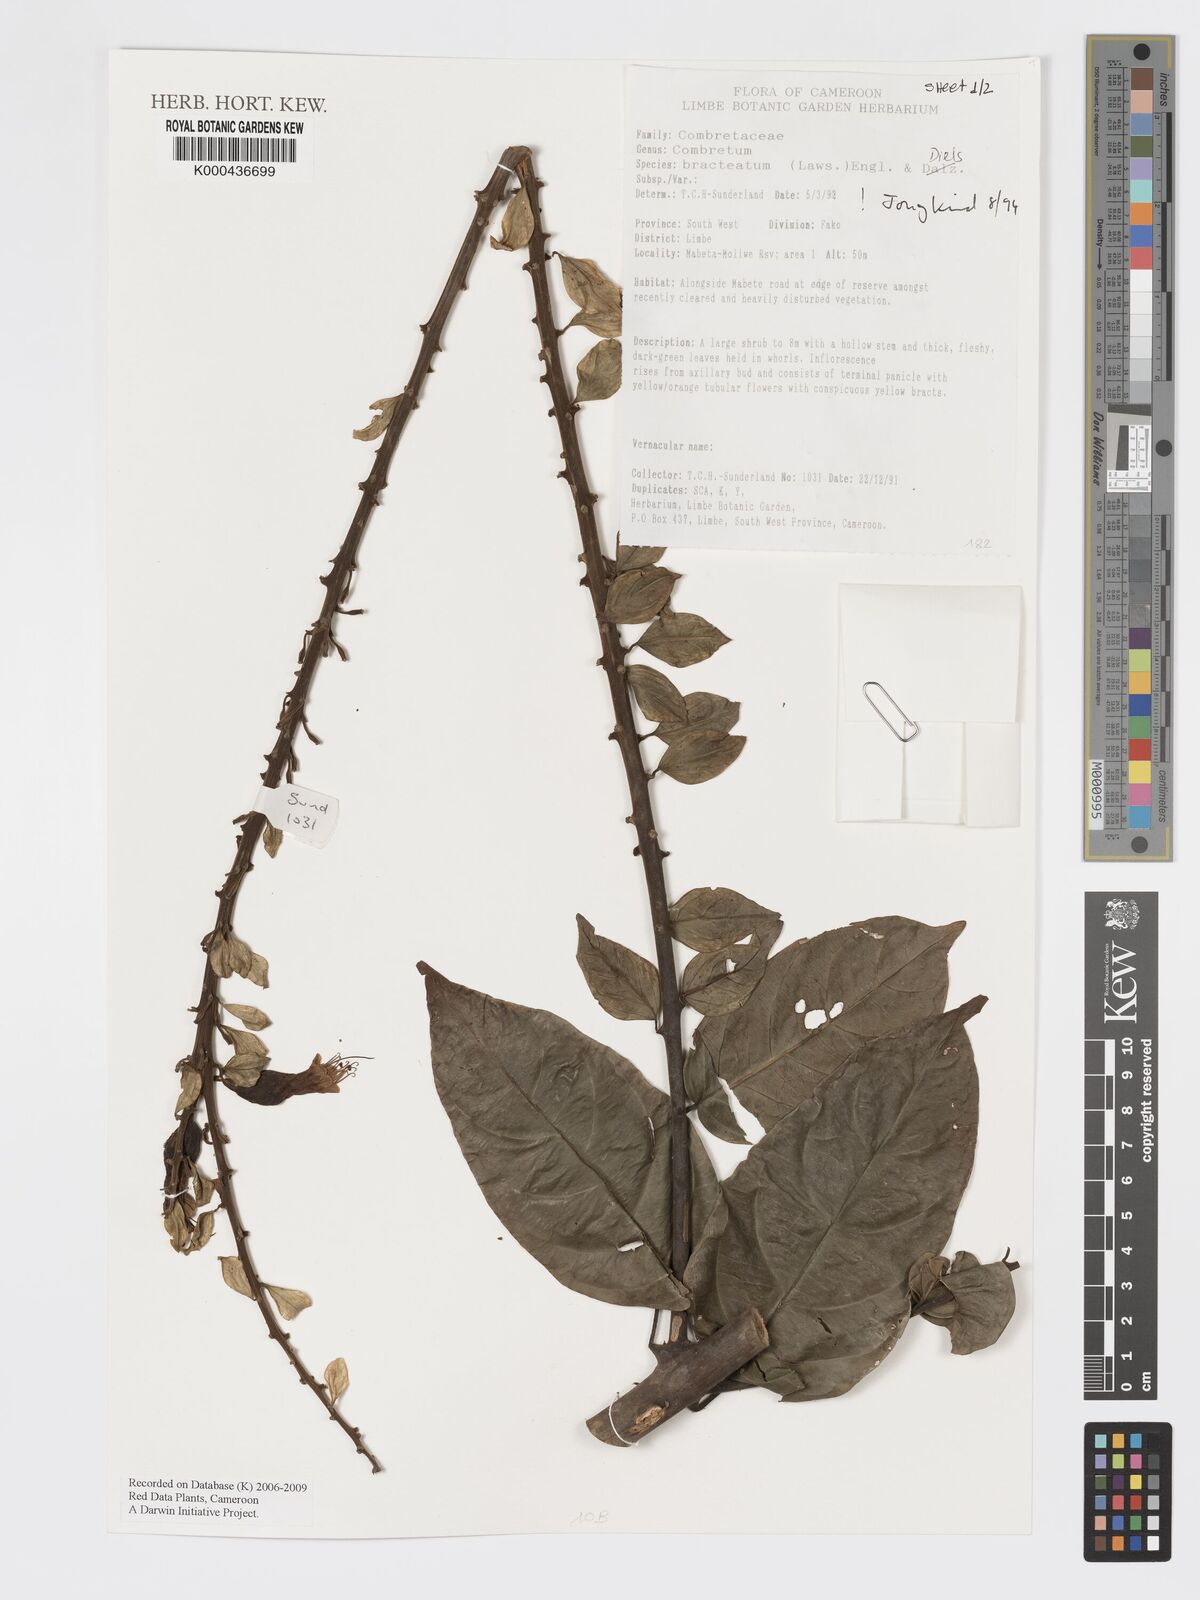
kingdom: Plantae
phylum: Tracheophyta
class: Magnoliopsida
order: Myrtales
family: Combretaceae
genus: Combretum
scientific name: Combretum bracteatum
